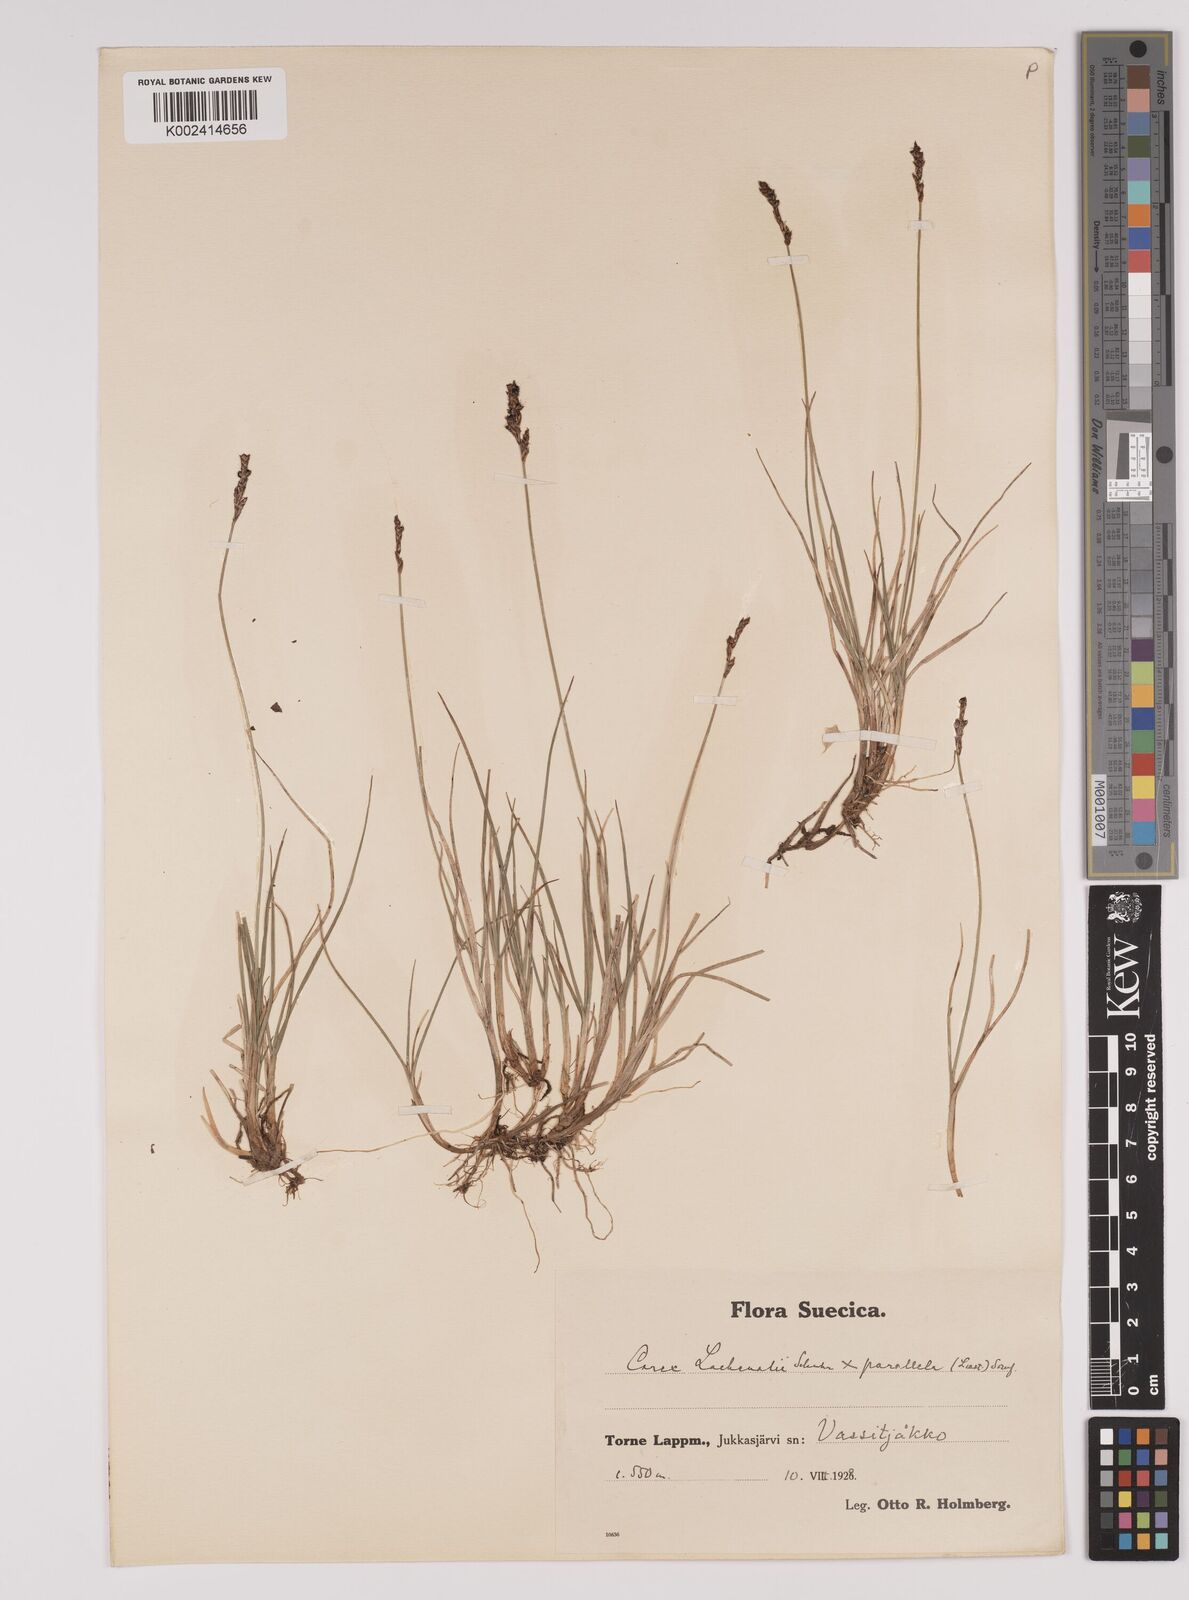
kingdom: Plantae
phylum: Tracheophyta
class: Liliopsida
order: Poales
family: Cyperaceae
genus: Carex
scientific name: Carex parallela
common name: Parallel sedge
